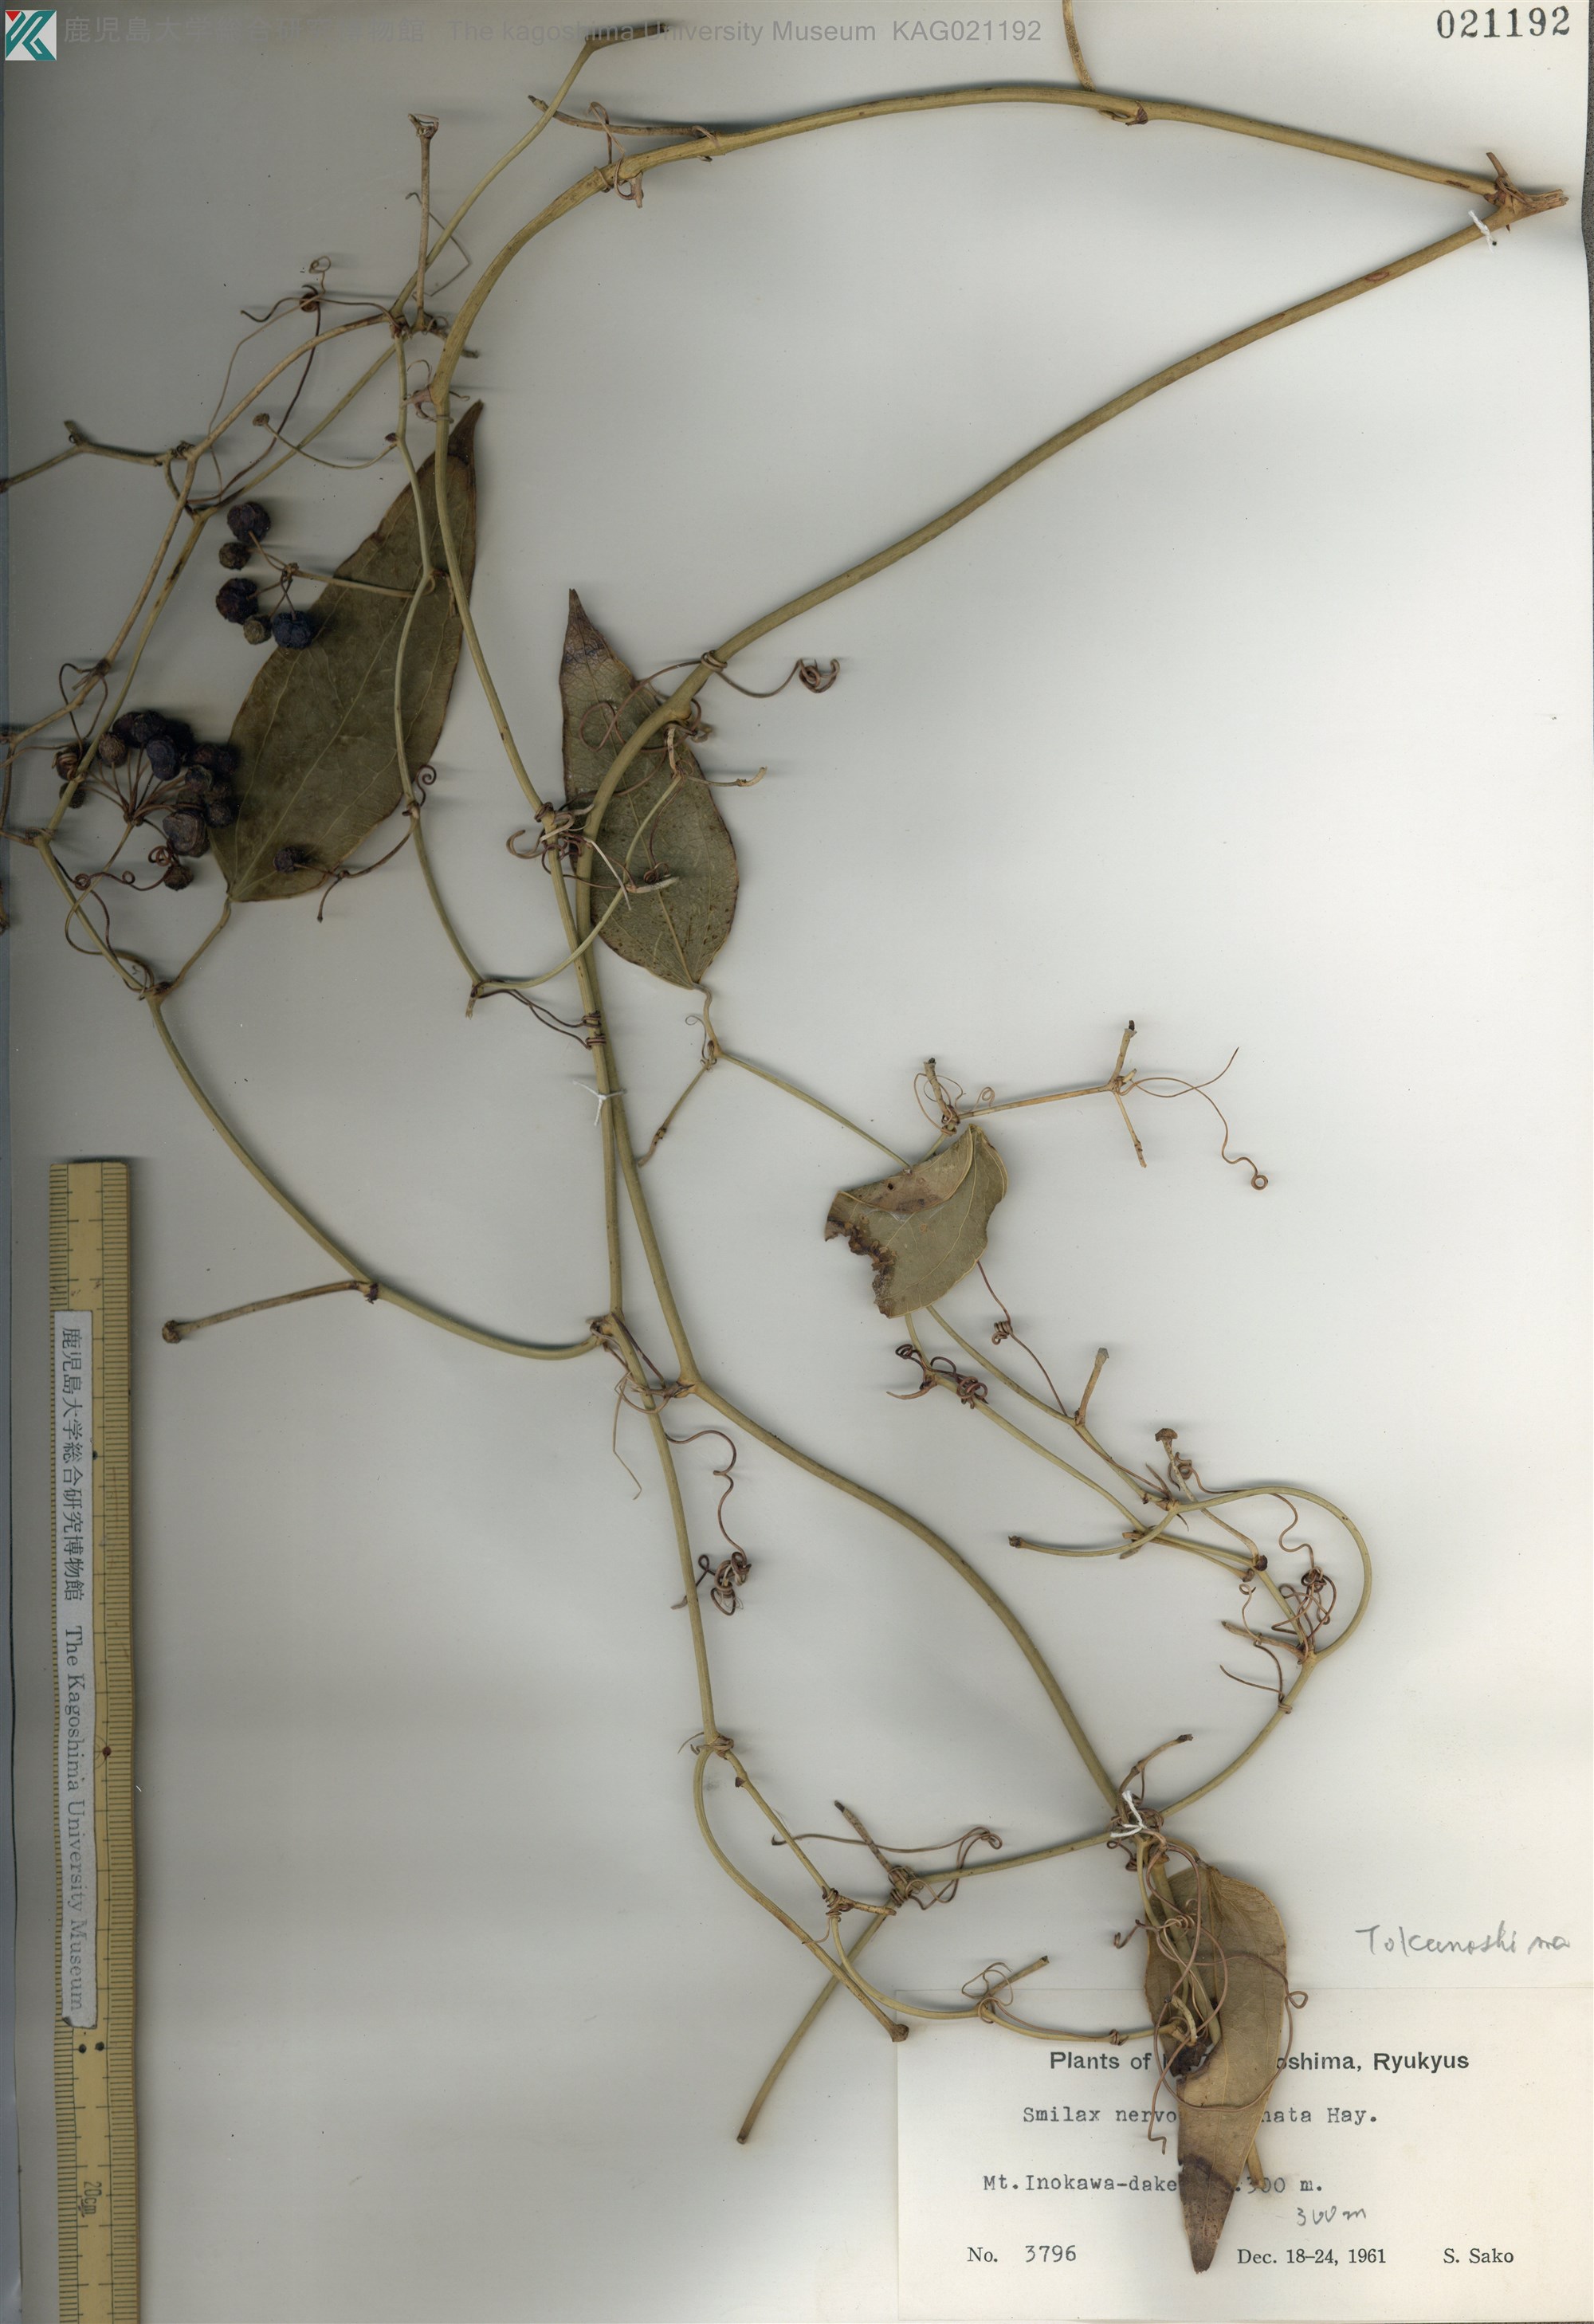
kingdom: Plantae
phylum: Tracheophyta
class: Liliopsida
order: Liliales
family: Smilacaceae
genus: Smilax
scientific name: Smilax nervomarginata
